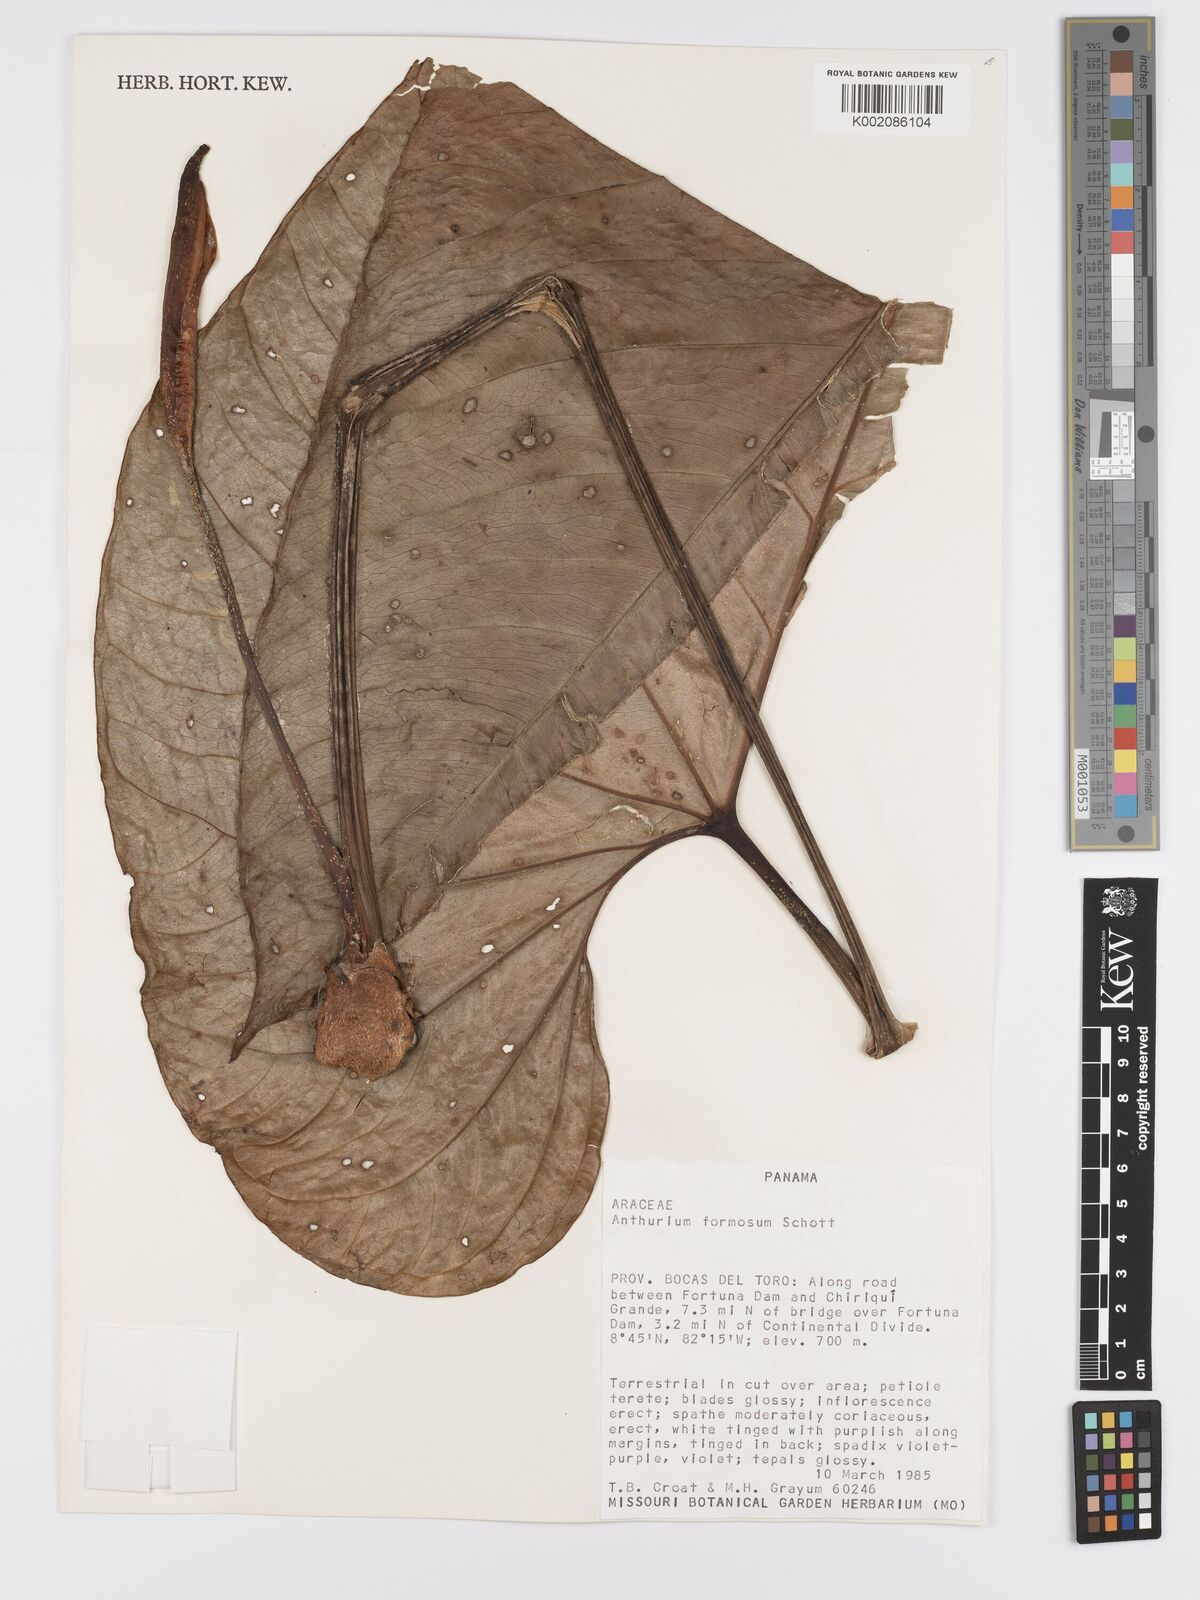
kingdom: Plantae
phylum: Tracheophyta
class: Liliopsida
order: Alismatales
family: Araceae
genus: Anthurium
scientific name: Anthurium formosum
